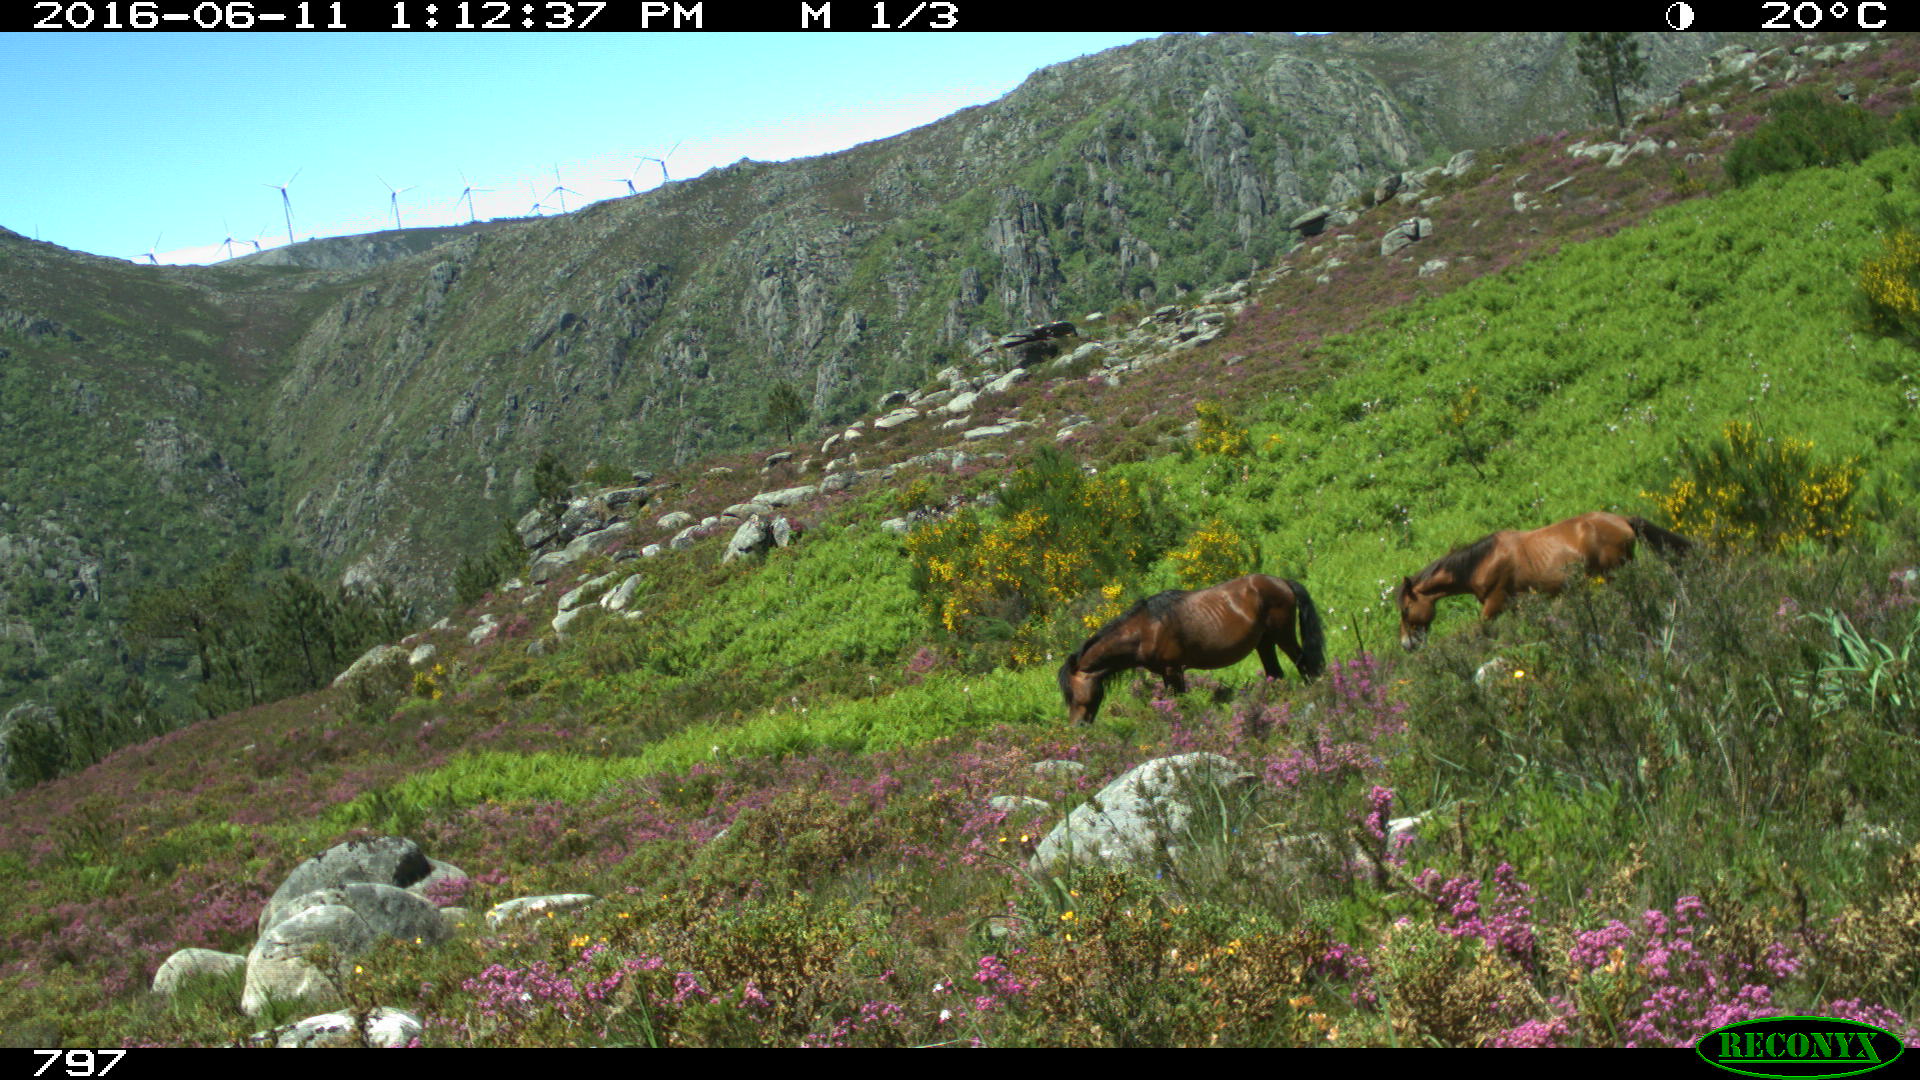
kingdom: Animalia
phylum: Chordata
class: Mammalia
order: Perissodactyla
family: Equidae
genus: Equus
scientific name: Equus caballus
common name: Horse
